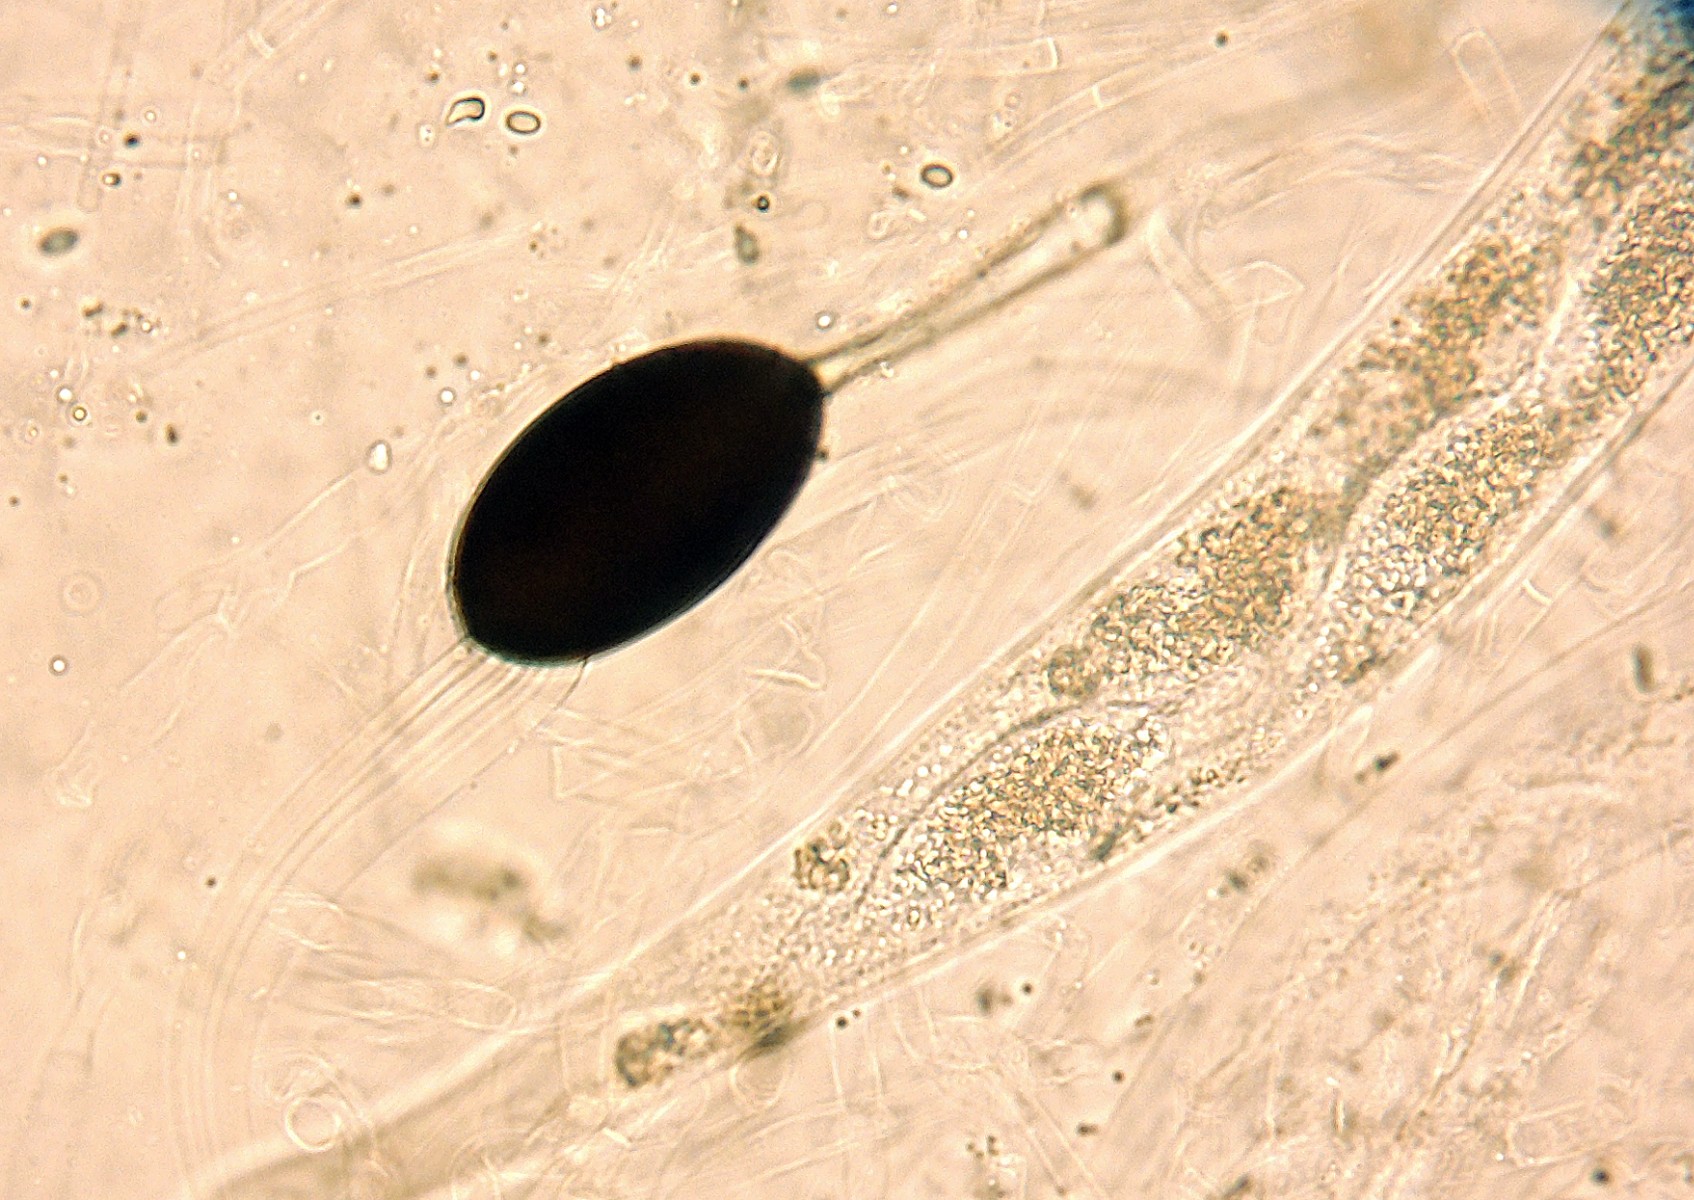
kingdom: Fungi
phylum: Ascomycota
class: Sordariomycetes
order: Sordariales
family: Podosporaceae
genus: Podospora
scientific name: Podospora fimiseda
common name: møg-kernesvamp
